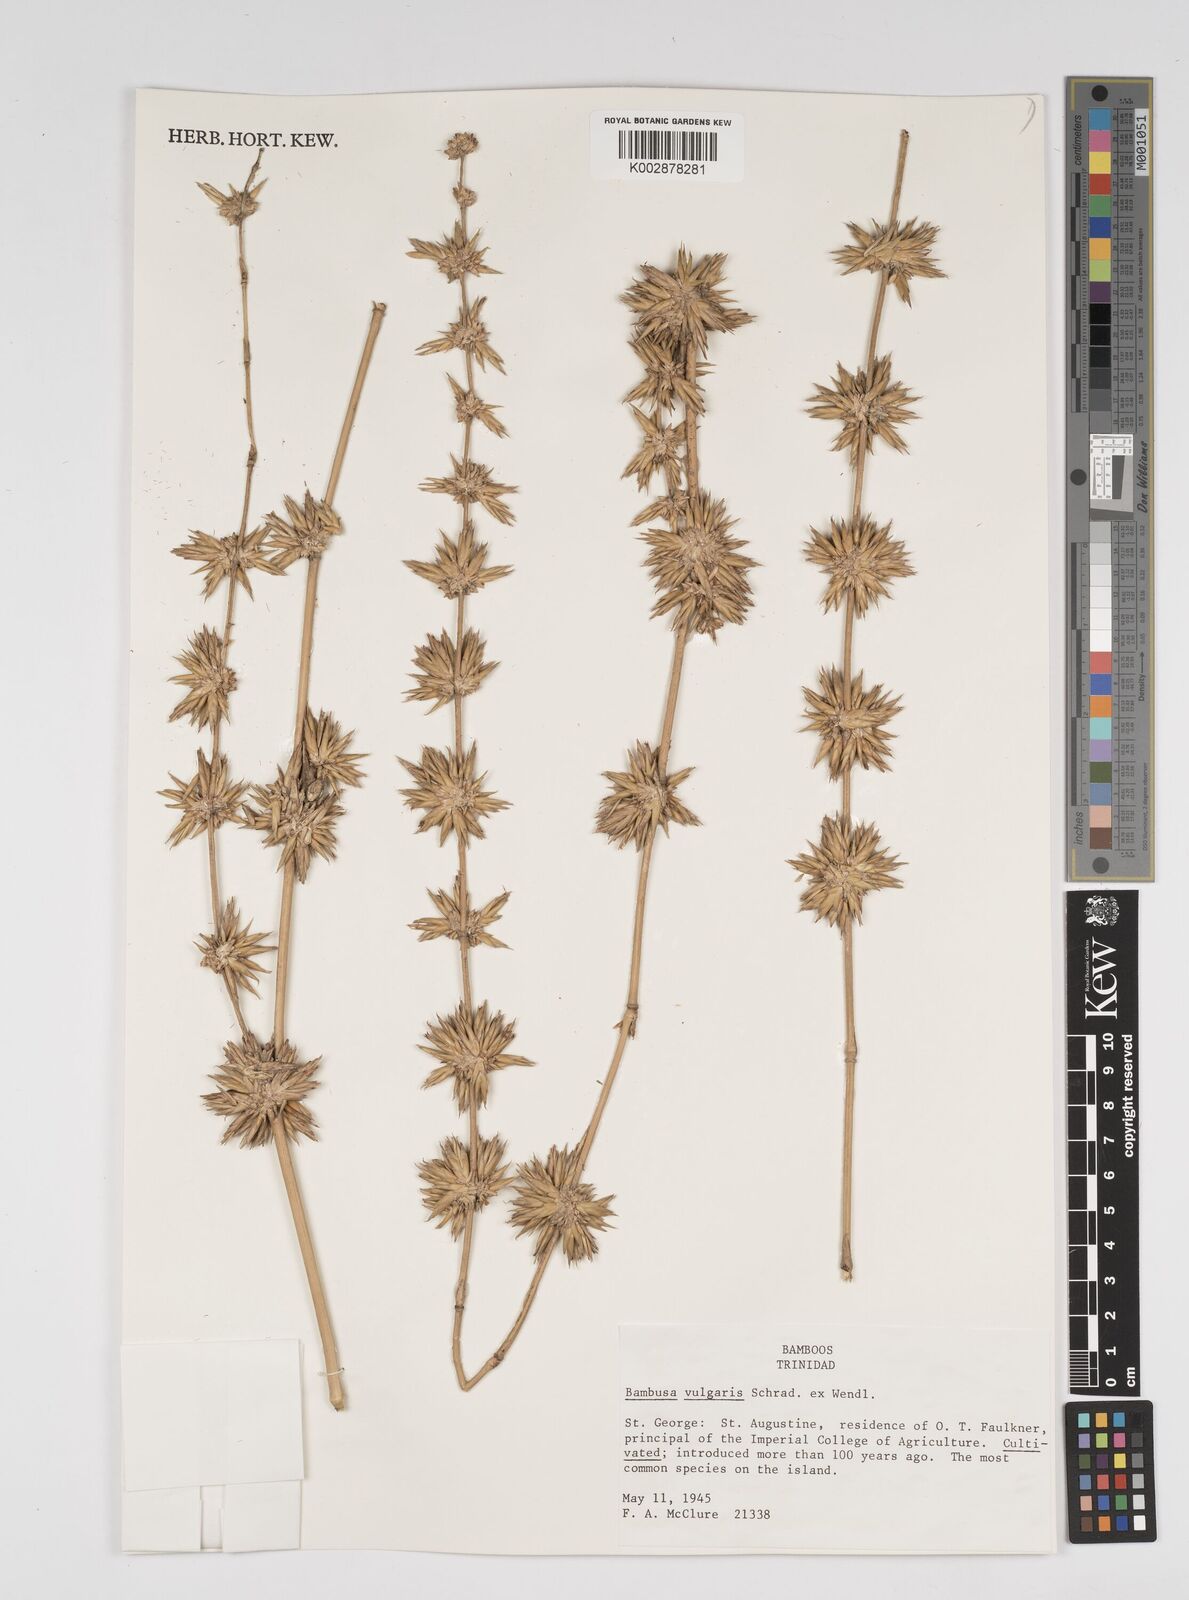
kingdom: Plantae
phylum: Tracheophyta
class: Liliopsida
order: Poales
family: Poaceae
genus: Bambusa
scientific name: Bambusa vulgaris
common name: Common bamboo
